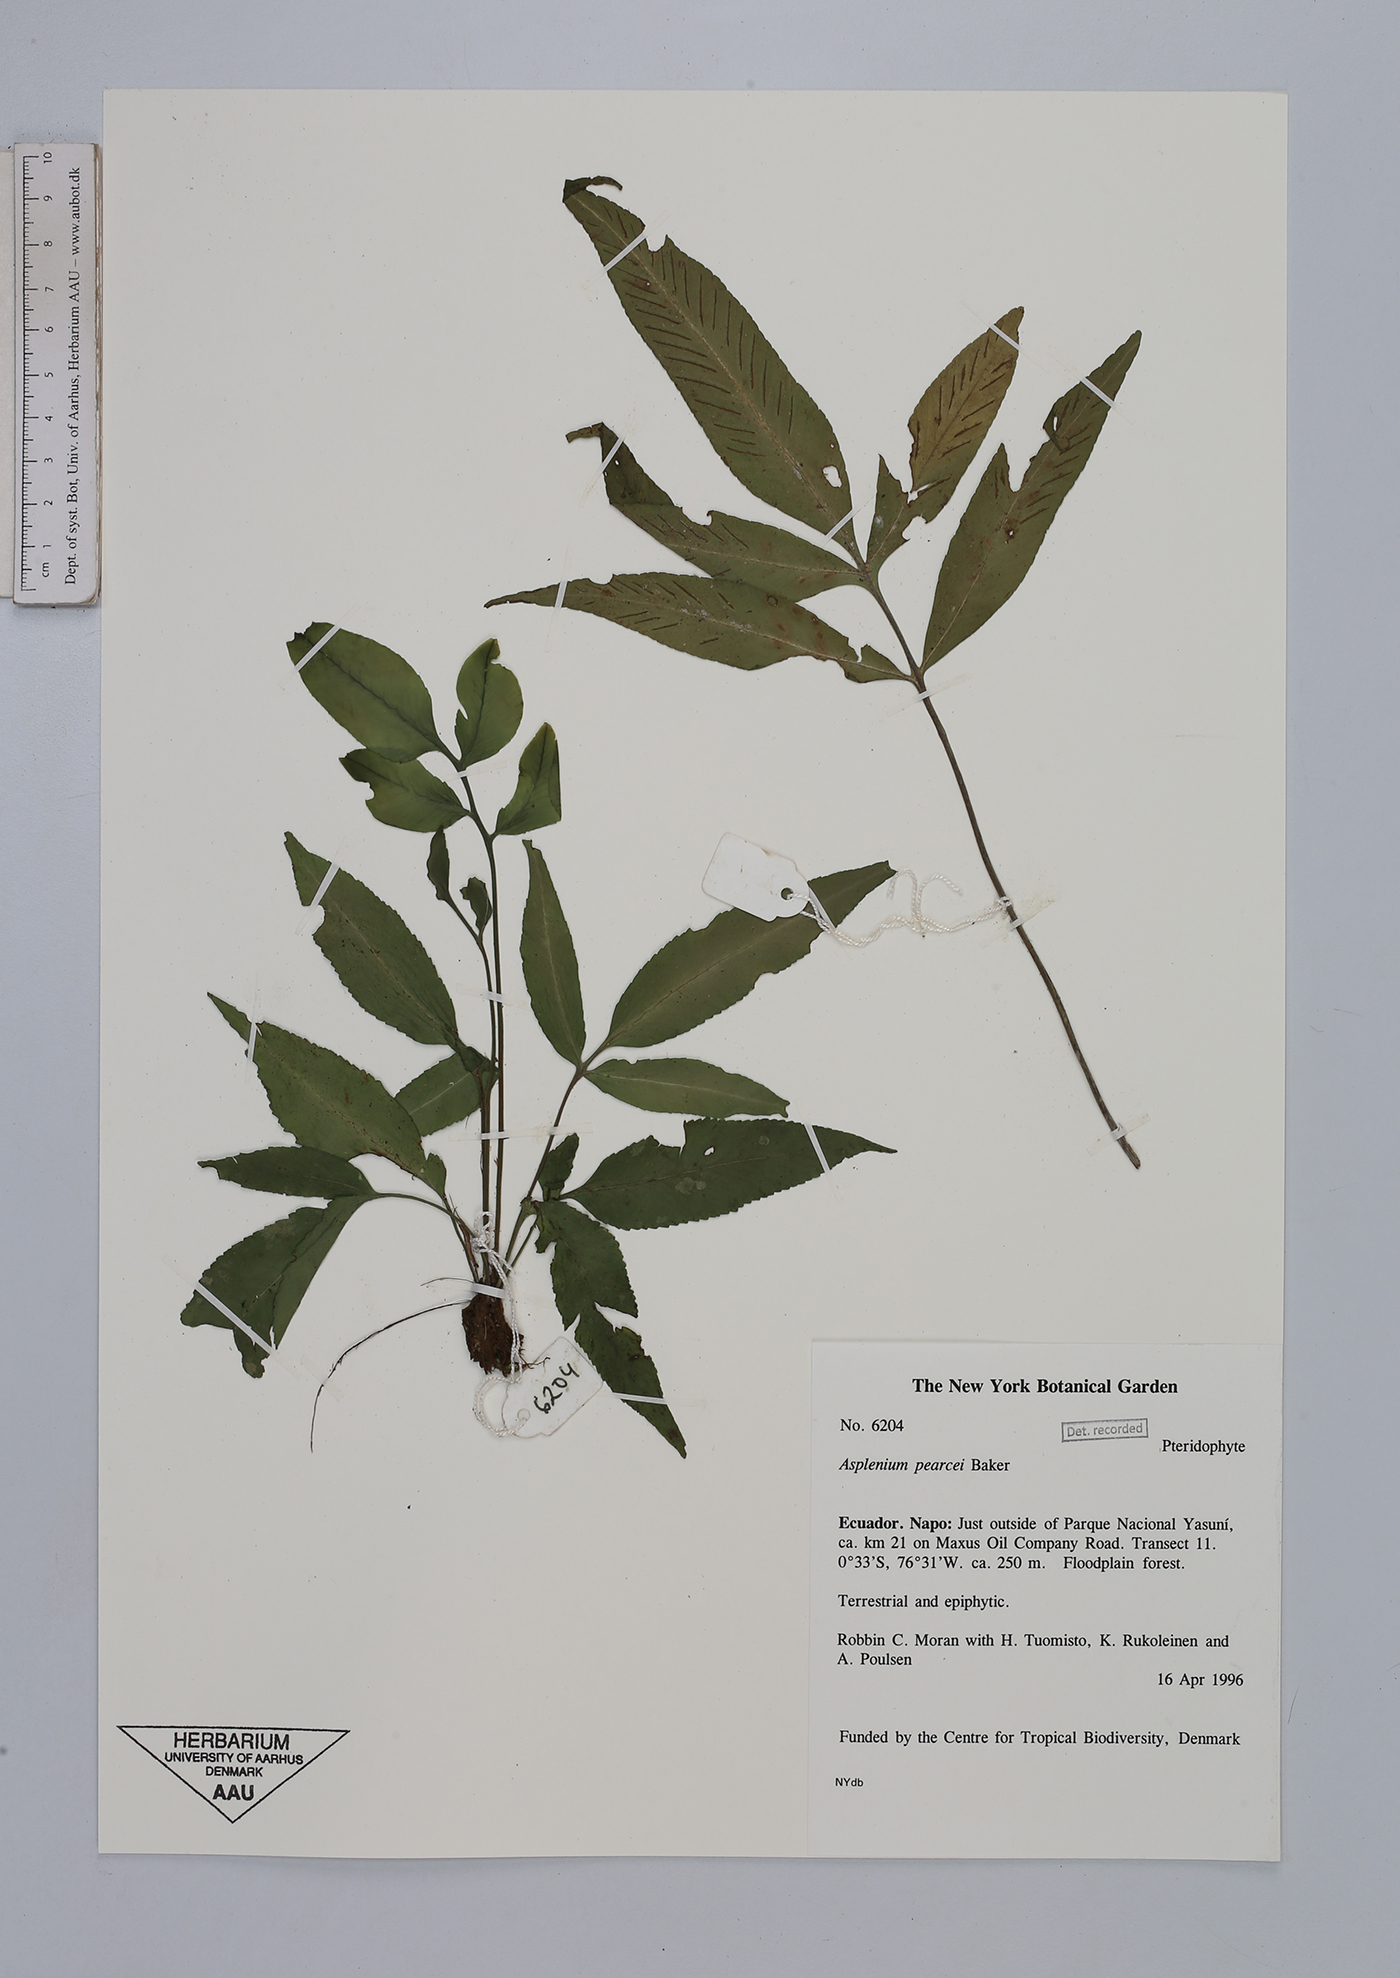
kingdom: Plantae
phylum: Tracheophyta
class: Polypodiopsida
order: Polypodiales
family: Aspleniaceae
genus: Asplenium
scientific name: Asplenium pearcei
